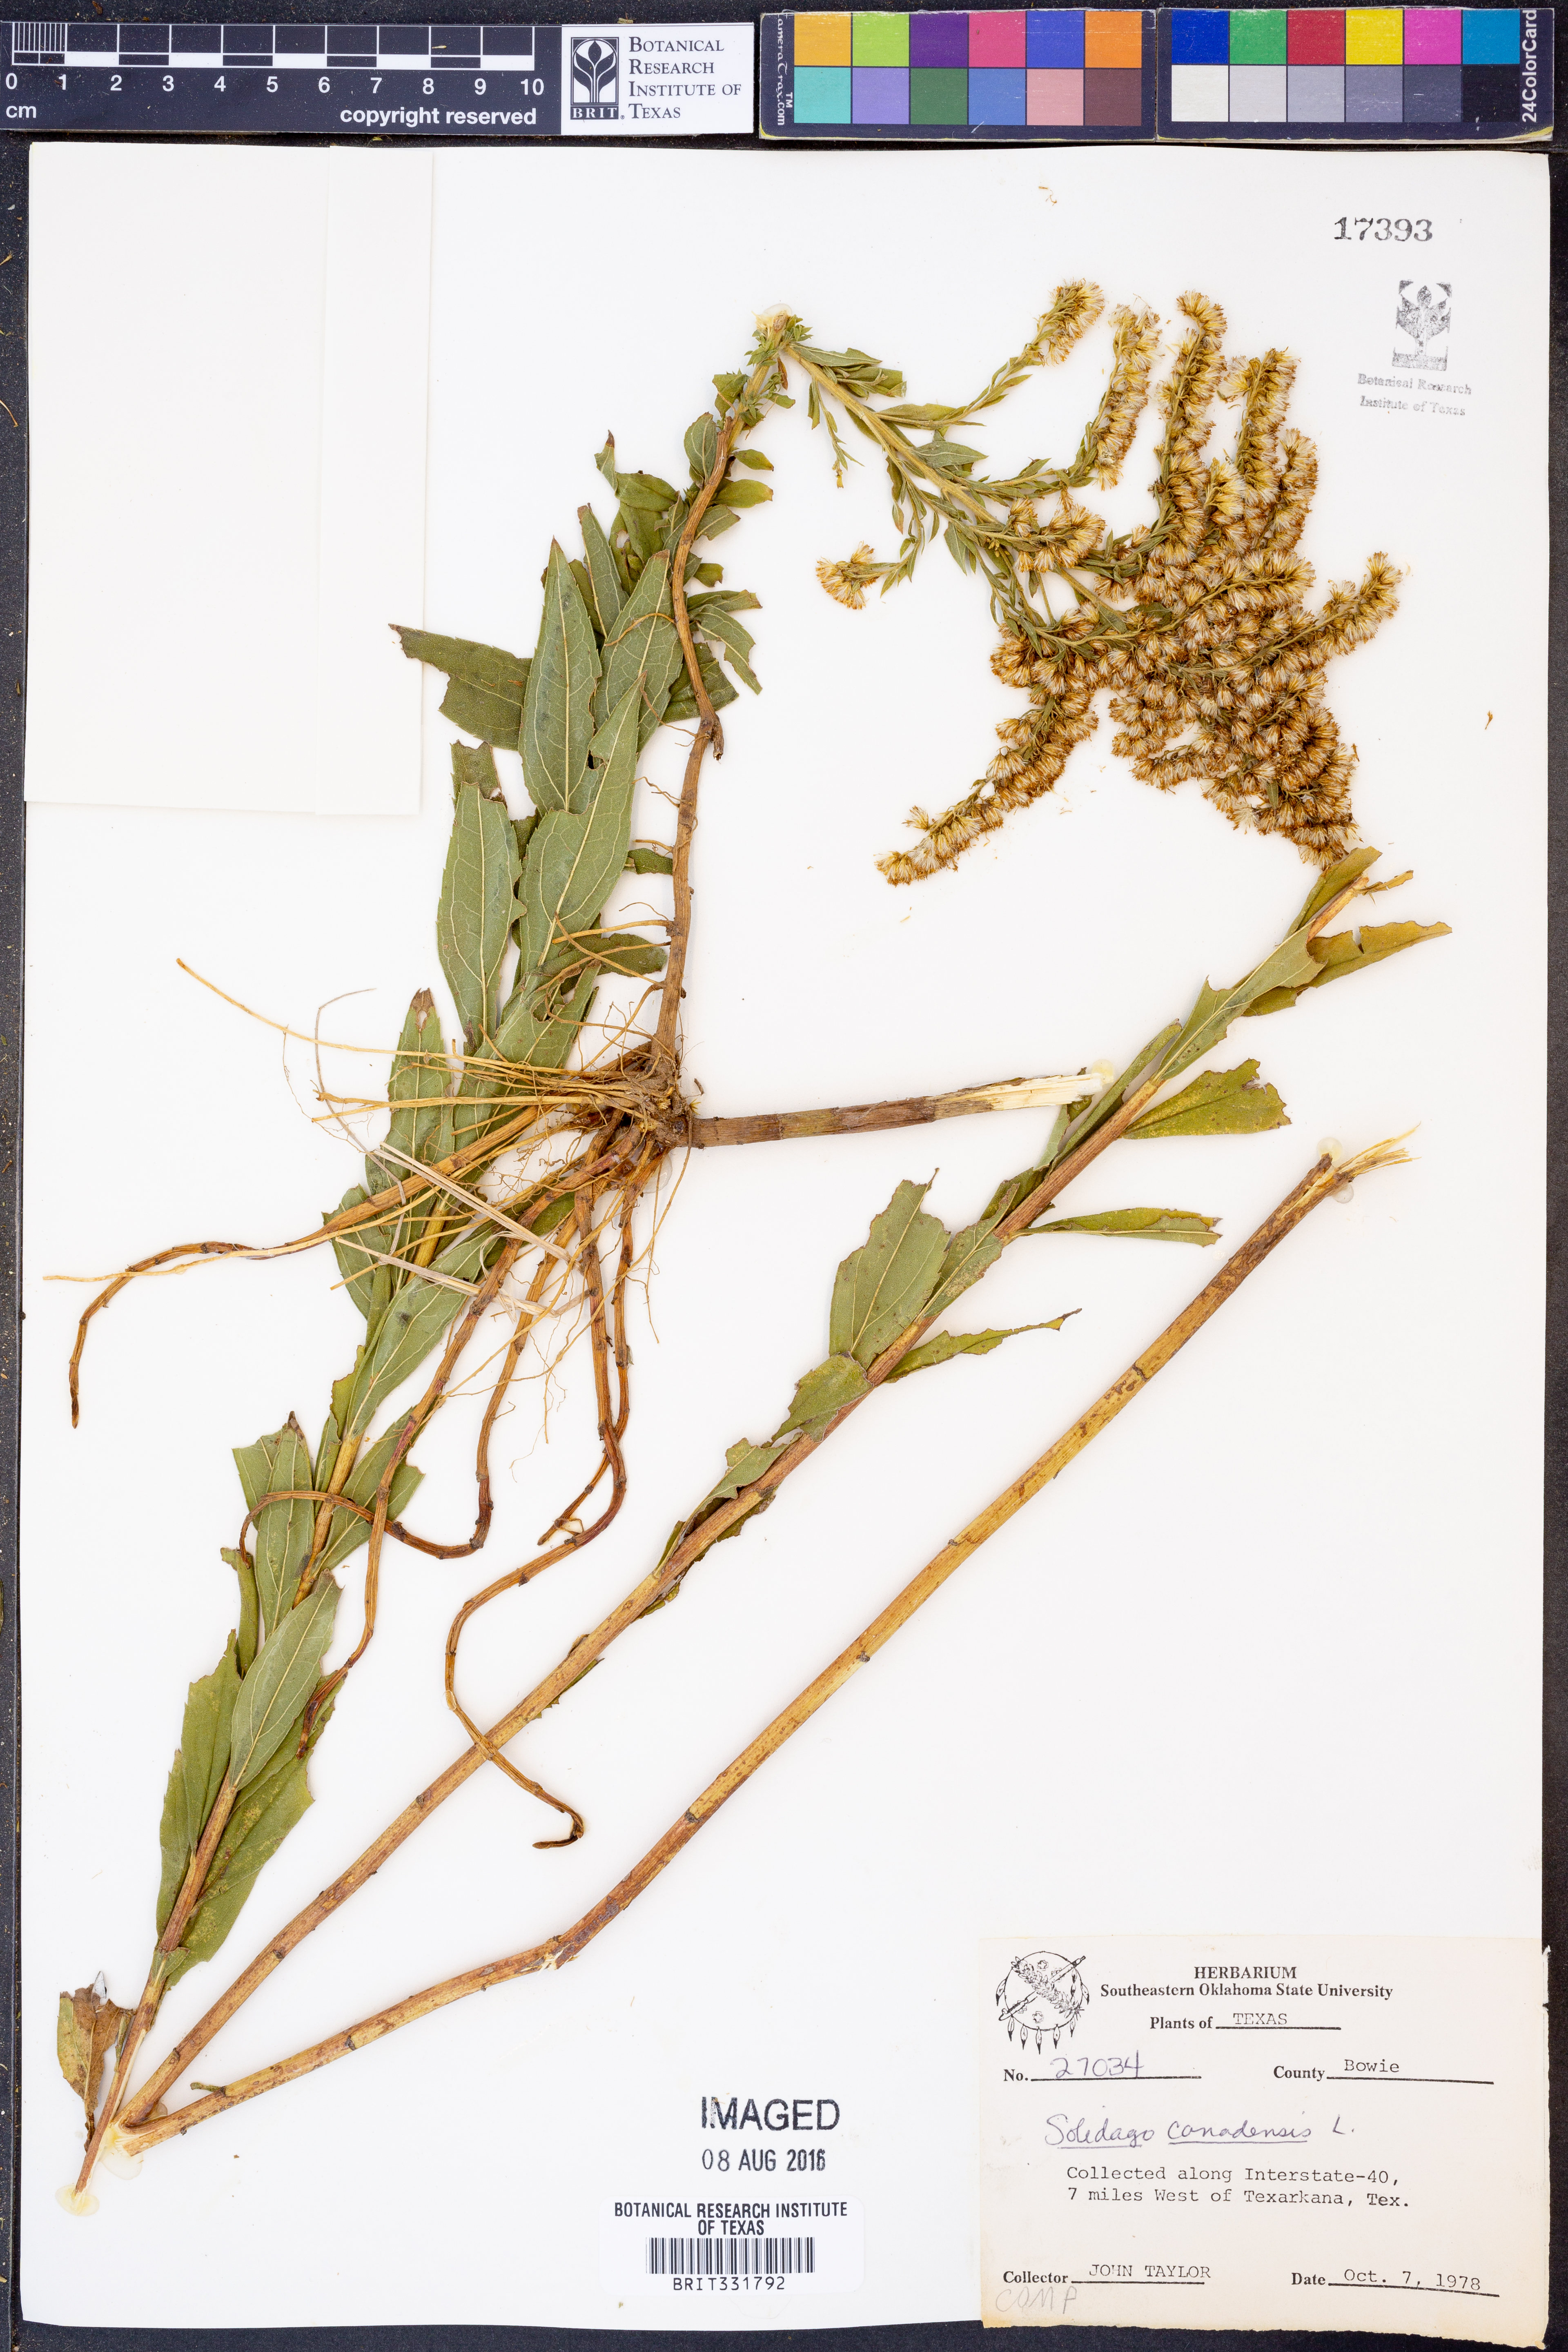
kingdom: Plantae
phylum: Tracheophyta
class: Magnoliopsida
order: Asterales
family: Asteraceae
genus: Solidago
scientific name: Solidago canadensis
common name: Canada goldenrod
